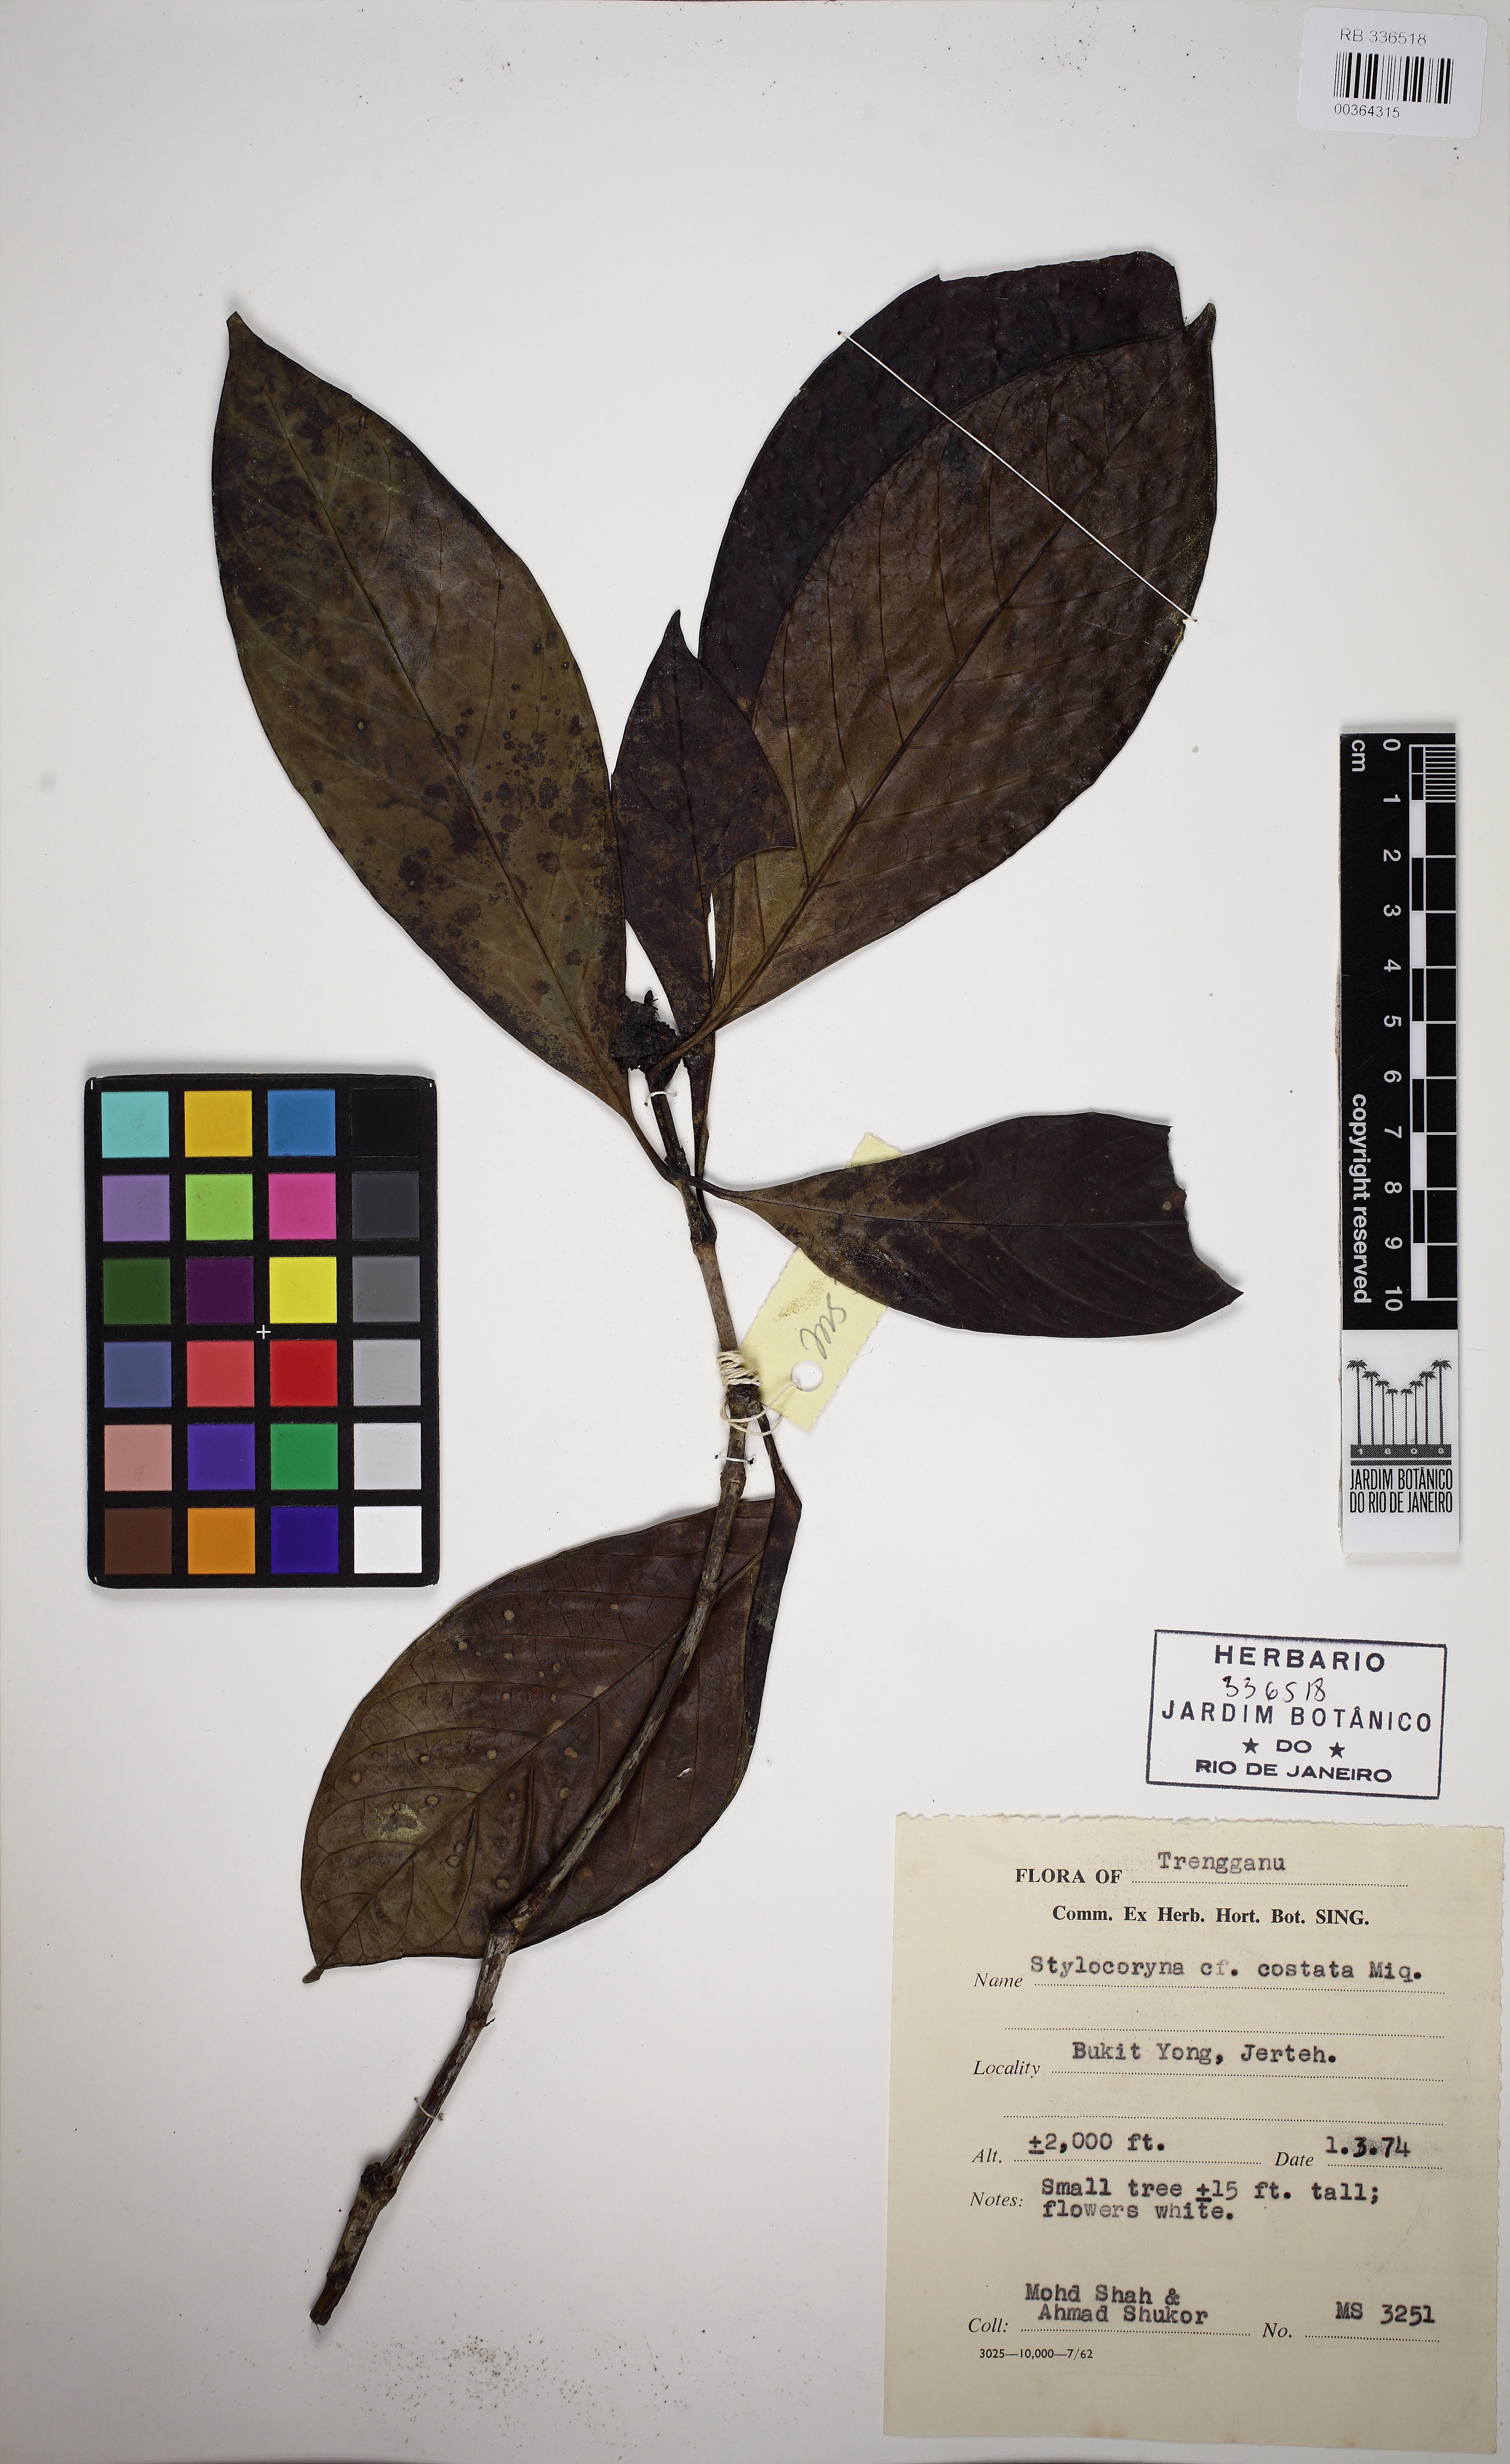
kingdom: Plantae
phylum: Tracheophyta
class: Magnoliopsida
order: Gentianales
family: Rubiaceae
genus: Tarenna
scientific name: Tarenna costata
